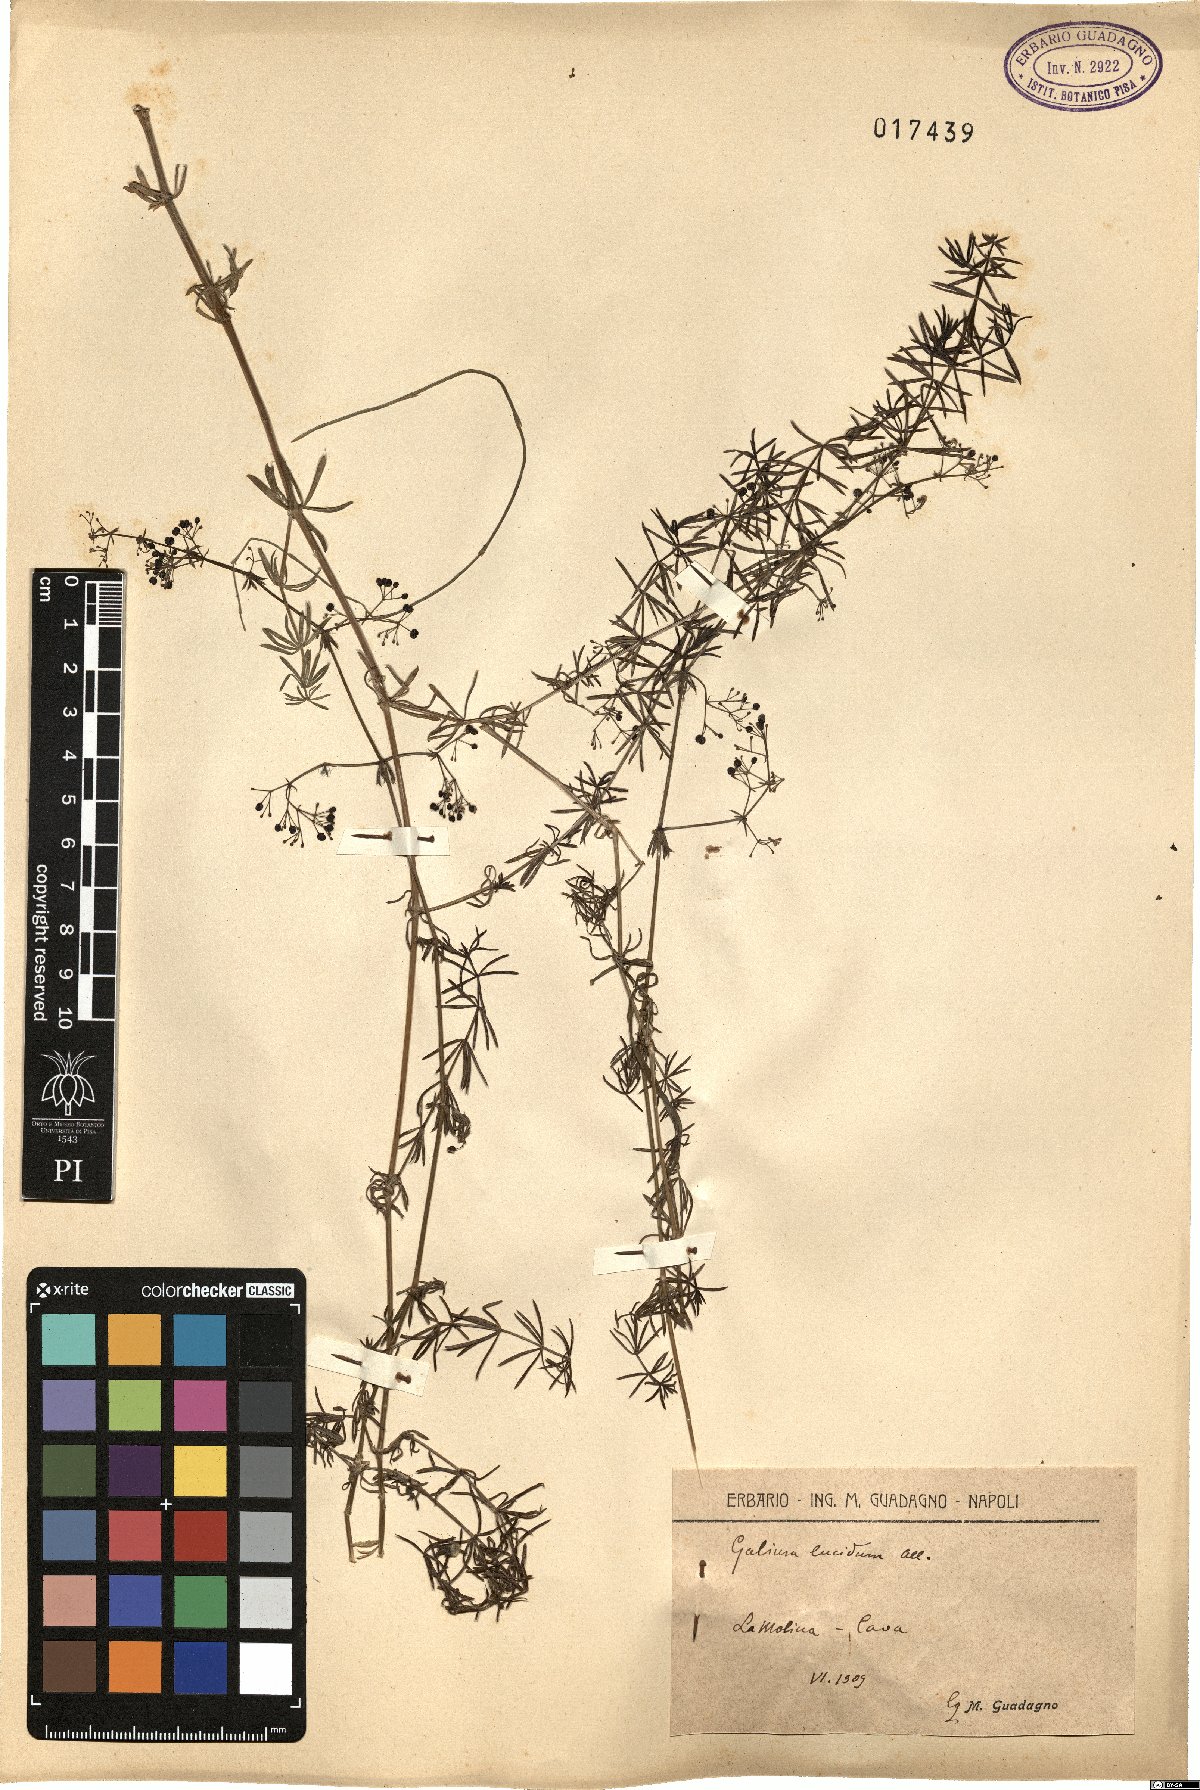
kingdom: Plantae
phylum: Tracheophyta
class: Magnoliopsida
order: Gentianales
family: Rubiaceae
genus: Galium
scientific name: Galium lucidum
